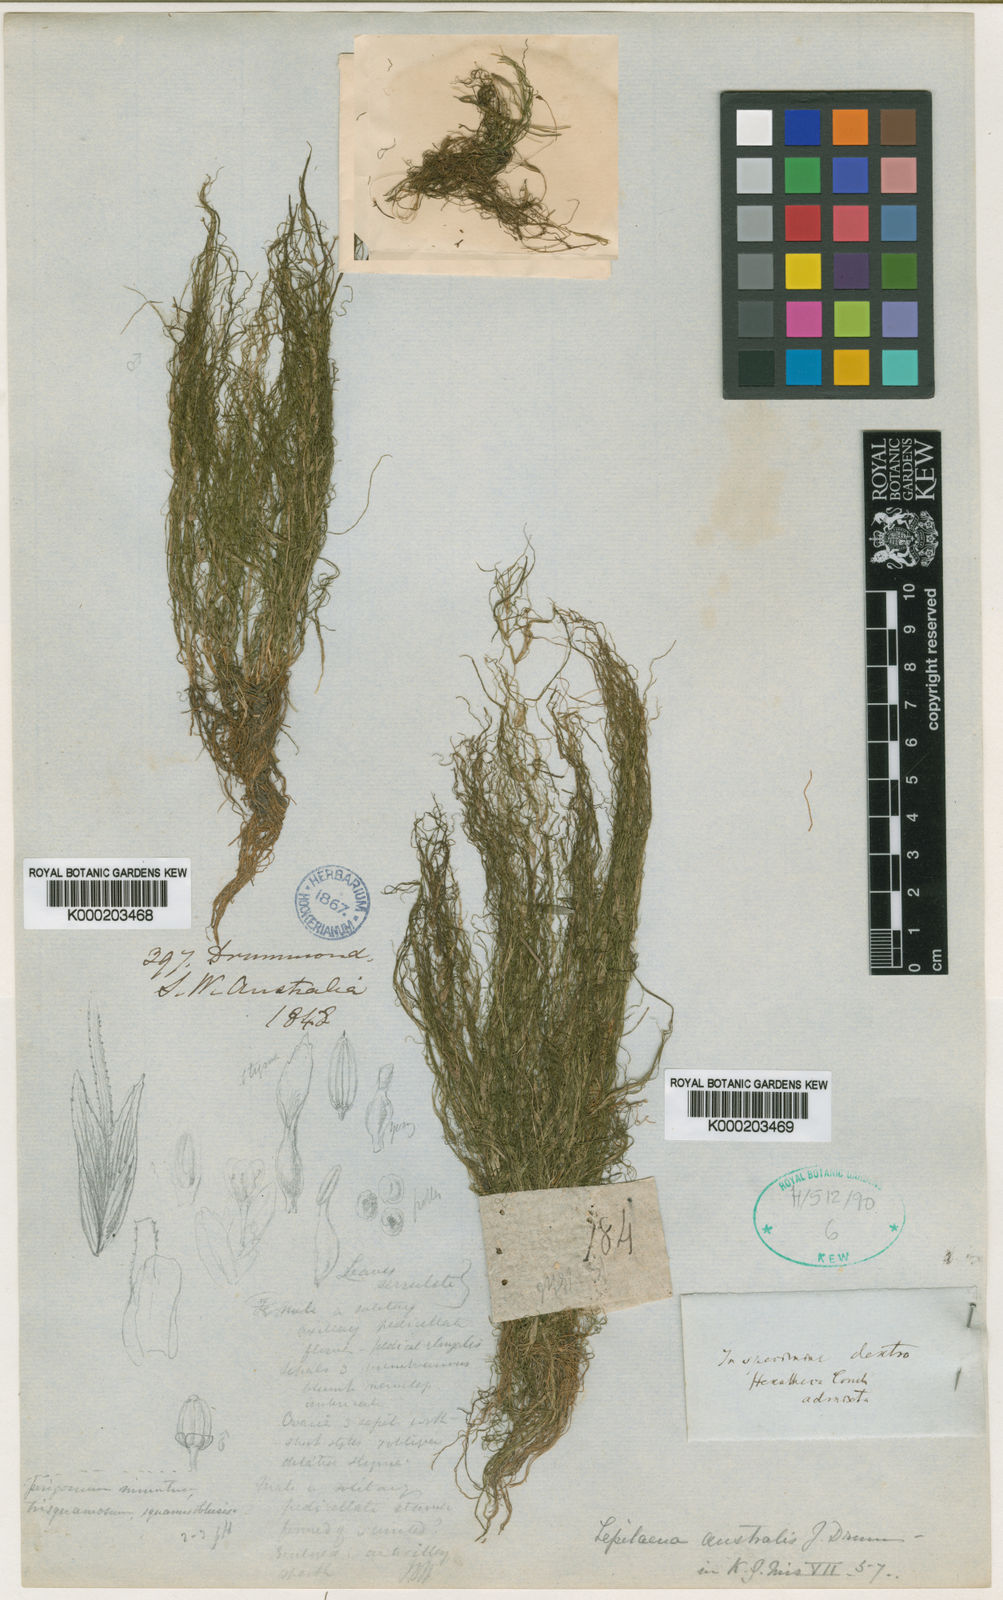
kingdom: Plantae
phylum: Tracheophyta
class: Liliopsida
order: Alismatales
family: Potamogetonaceae
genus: Althenia
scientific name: Althenia australis
